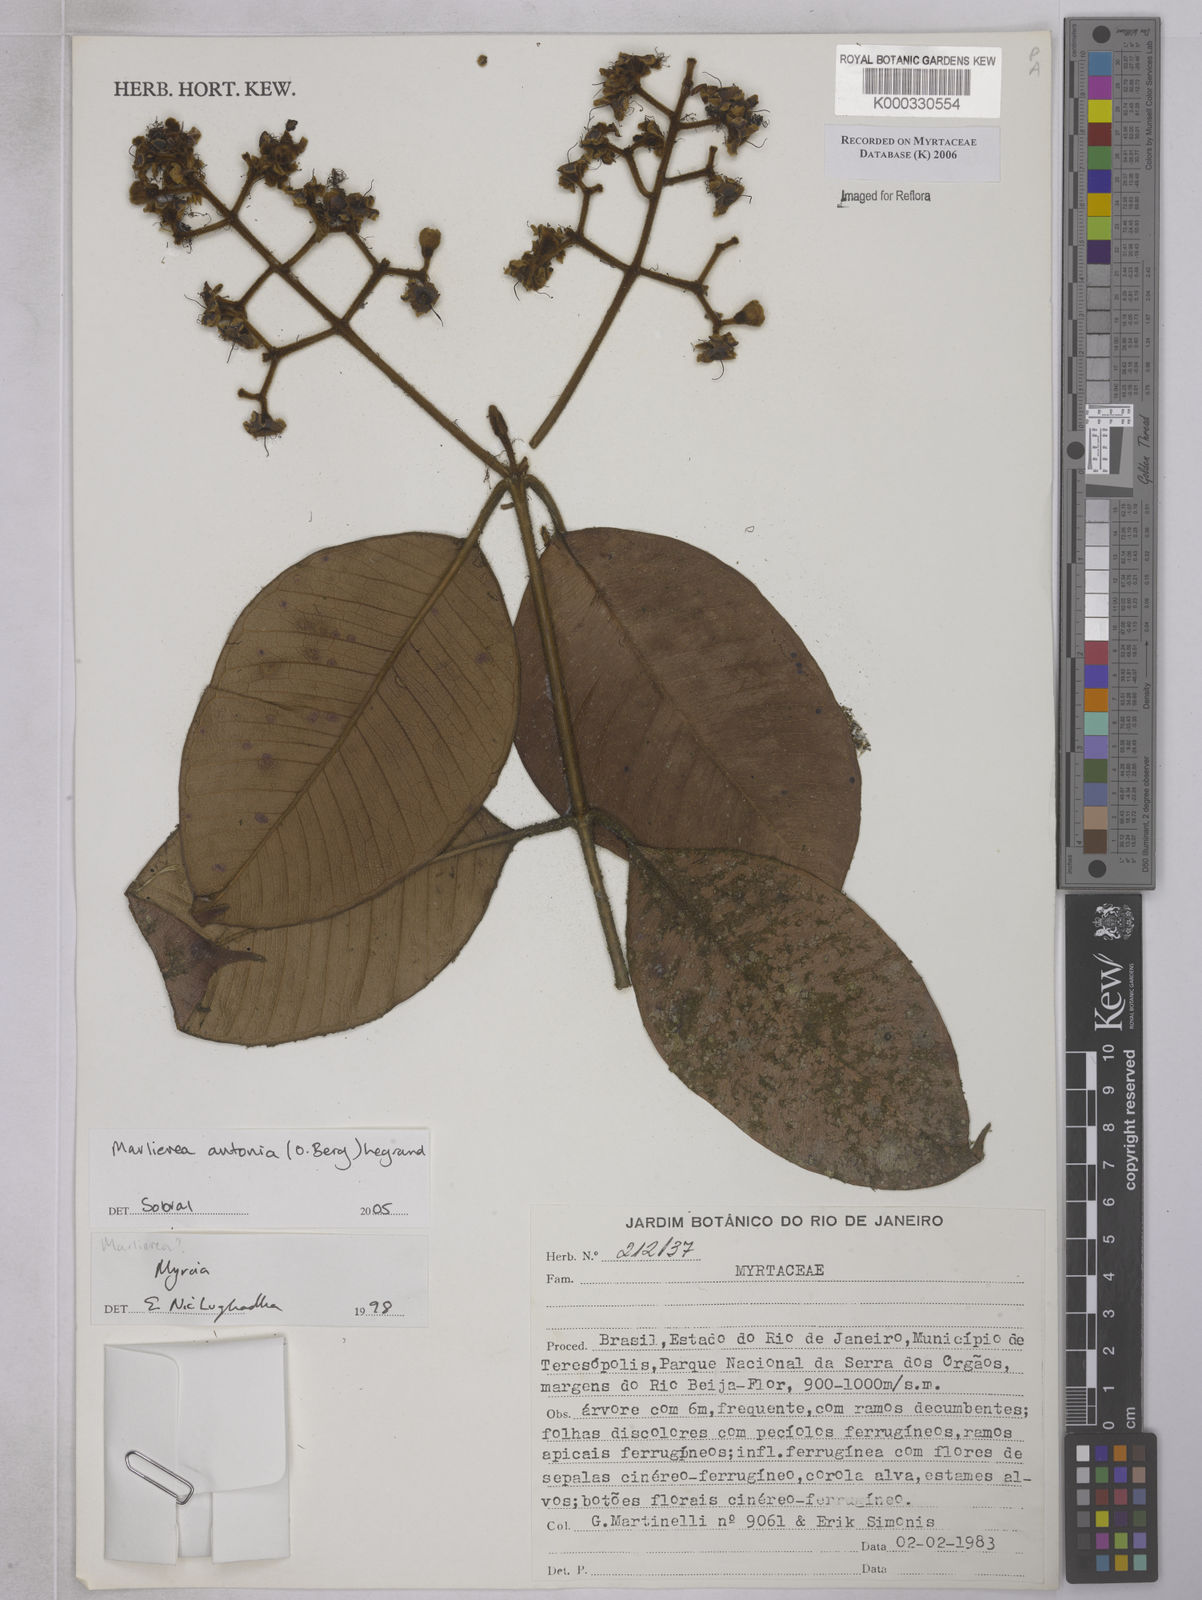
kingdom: Plantae
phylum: Tracheophyta
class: Magnoliopsida
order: Myrtales
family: Myrtaceae
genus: Myrcia
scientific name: Myrcia antonia
